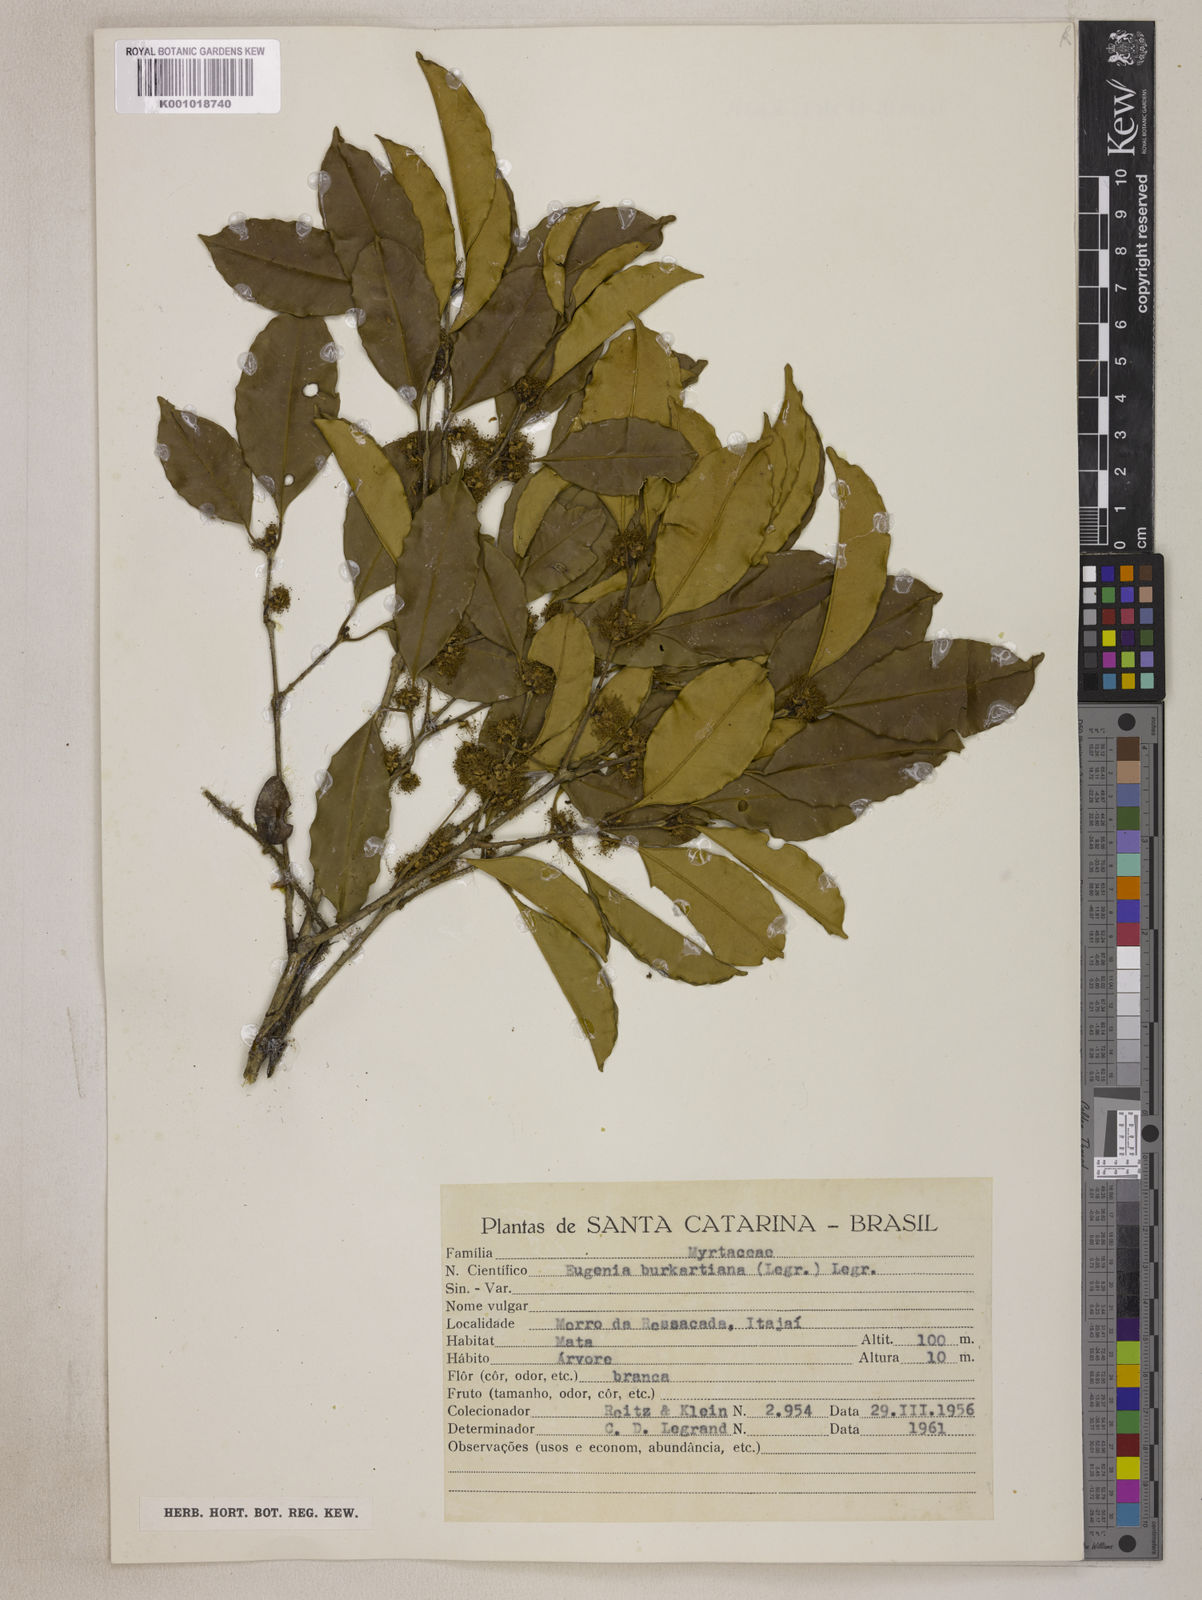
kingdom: Plantae
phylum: Tracheophyta
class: Magnoliopsida
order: Myrtales
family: Myrtaceae
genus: Eugenia
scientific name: Eugenia burkartiana
